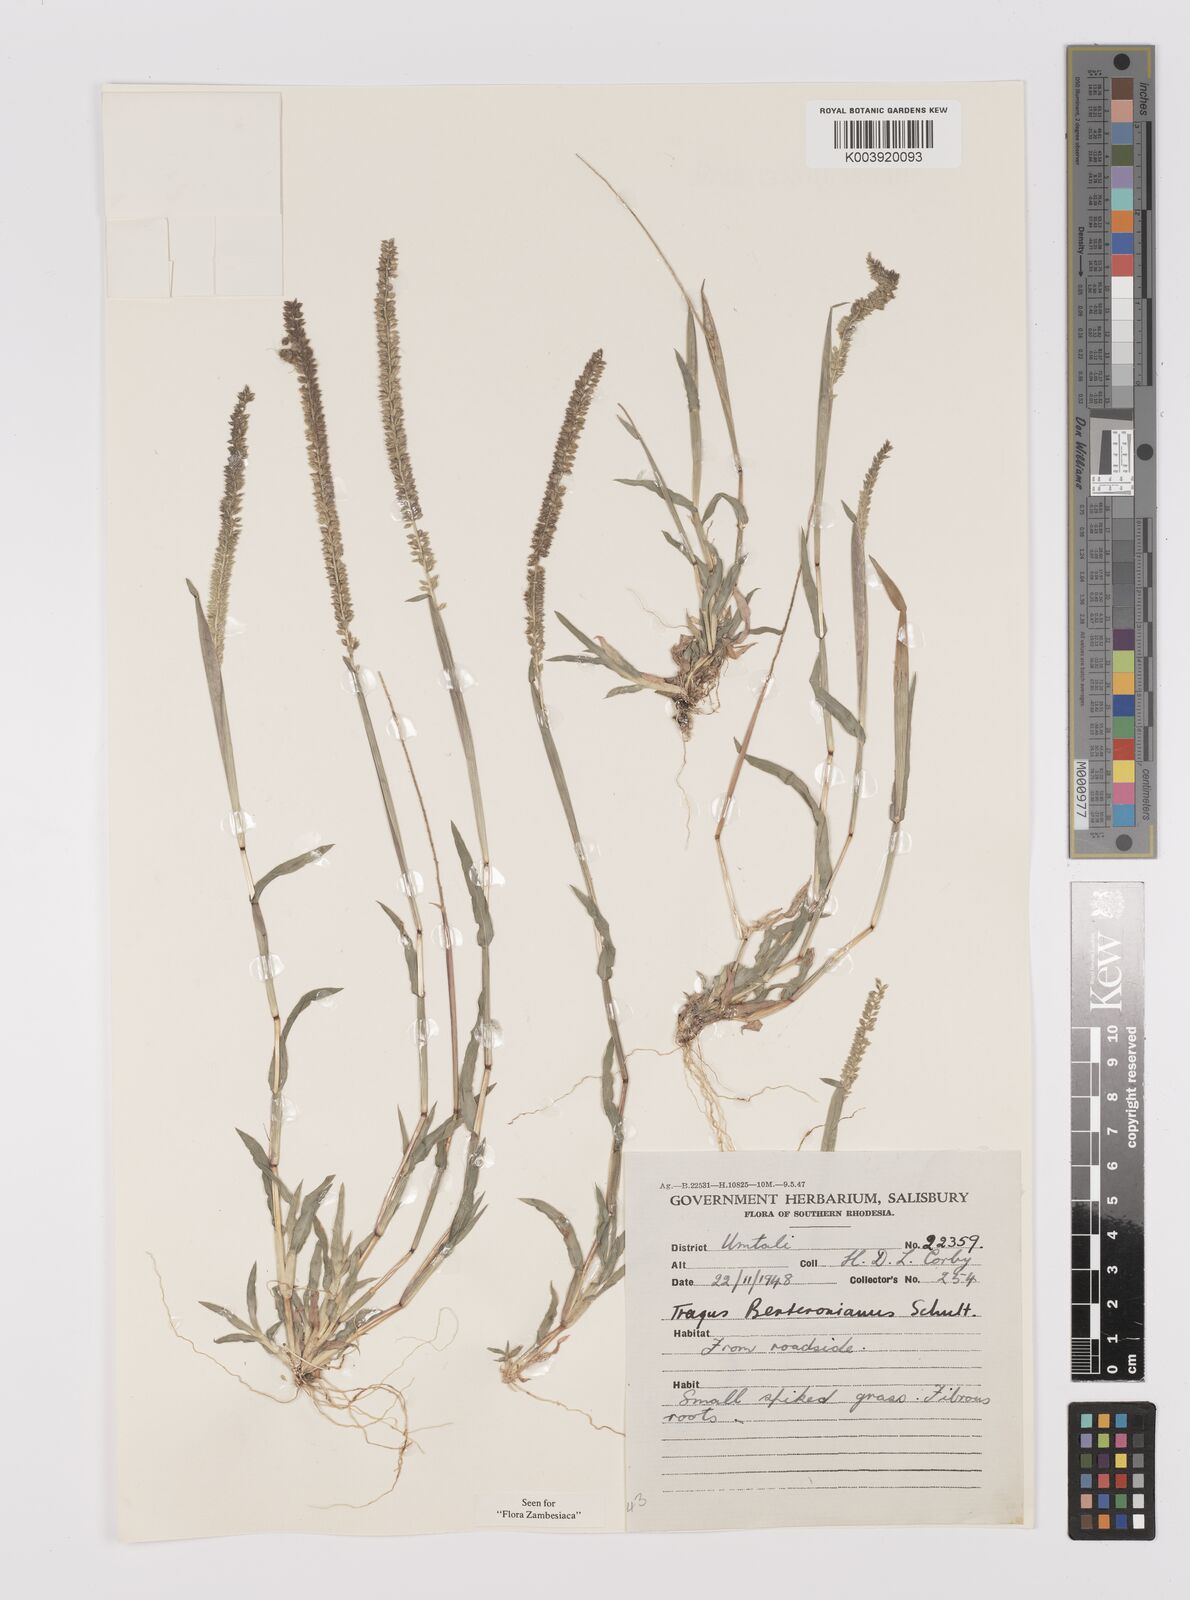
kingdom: Plantae
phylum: Tracheophyta
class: Liliopsida
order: Poales
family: Poaceae
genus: Tragus
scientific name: Tragus berteronianus
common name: African bur-grass
